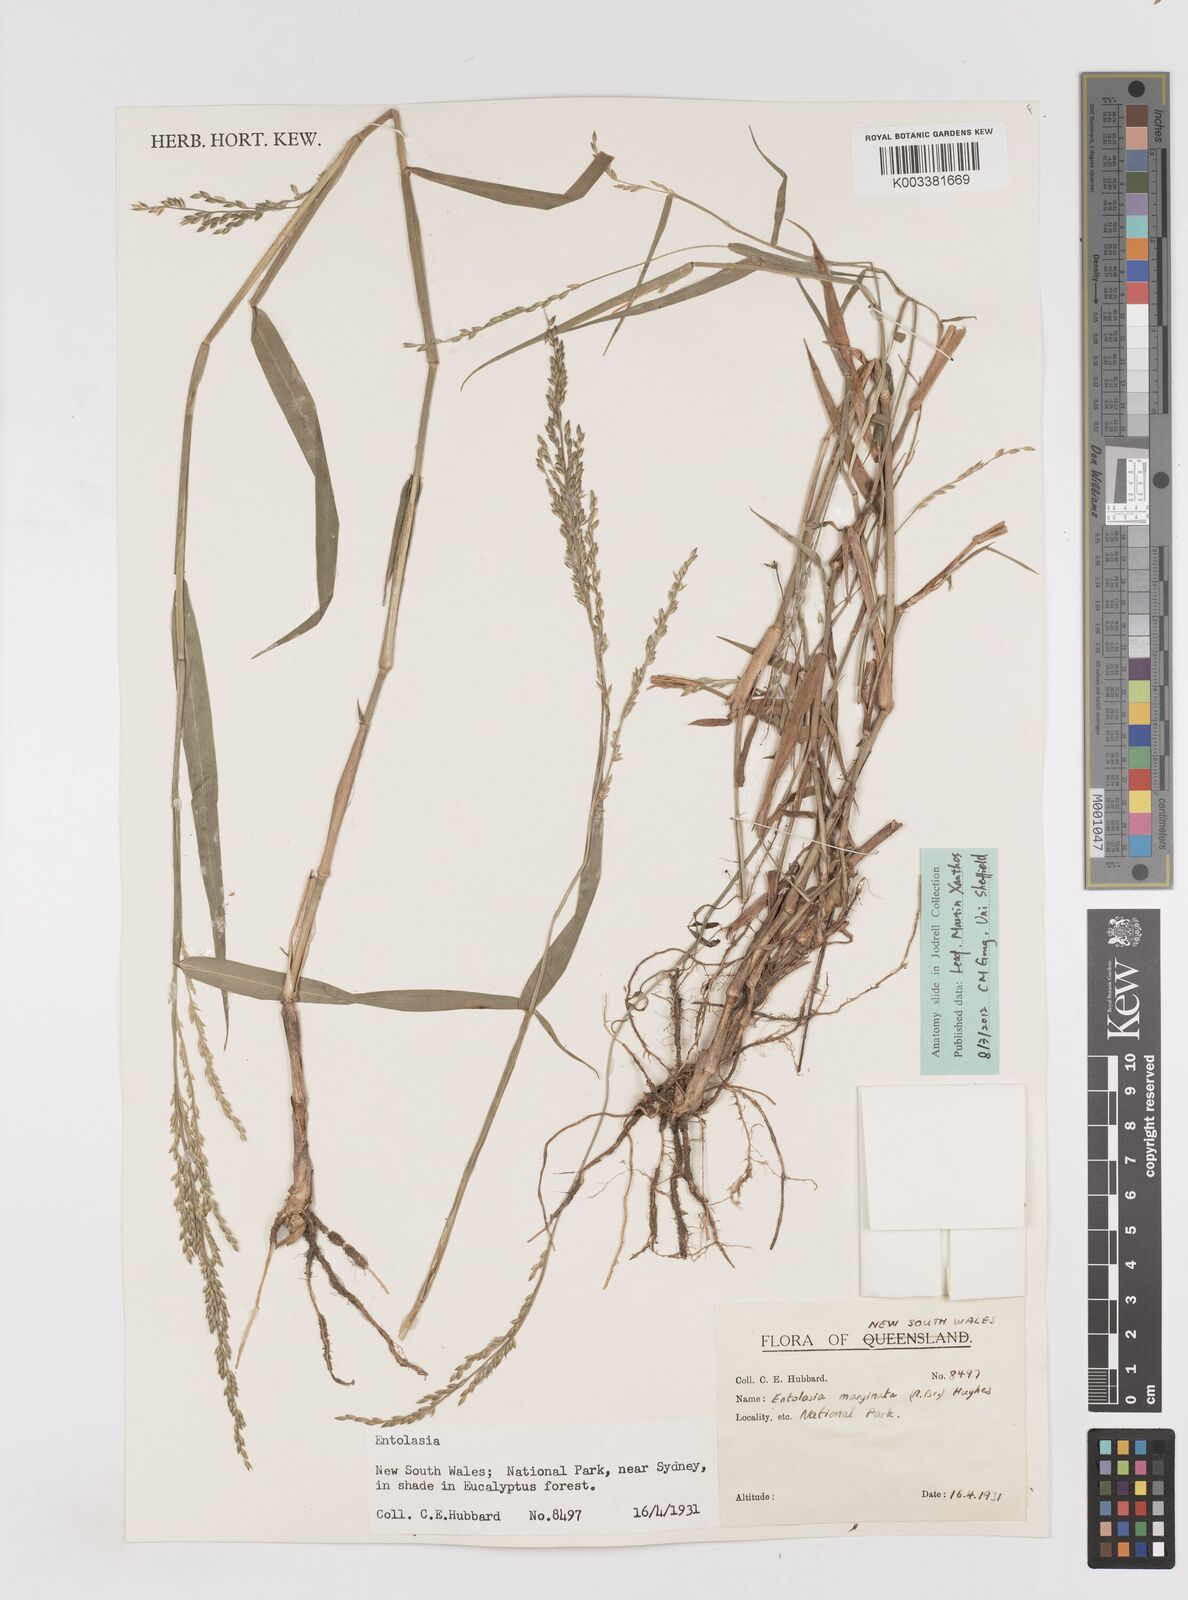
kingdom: Plantae
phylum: Tracheophyta
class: Liliopsida
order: Poales
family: Poaceae
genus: Entolasia
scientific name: Entolasia marginata
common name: Australian panicgrass
